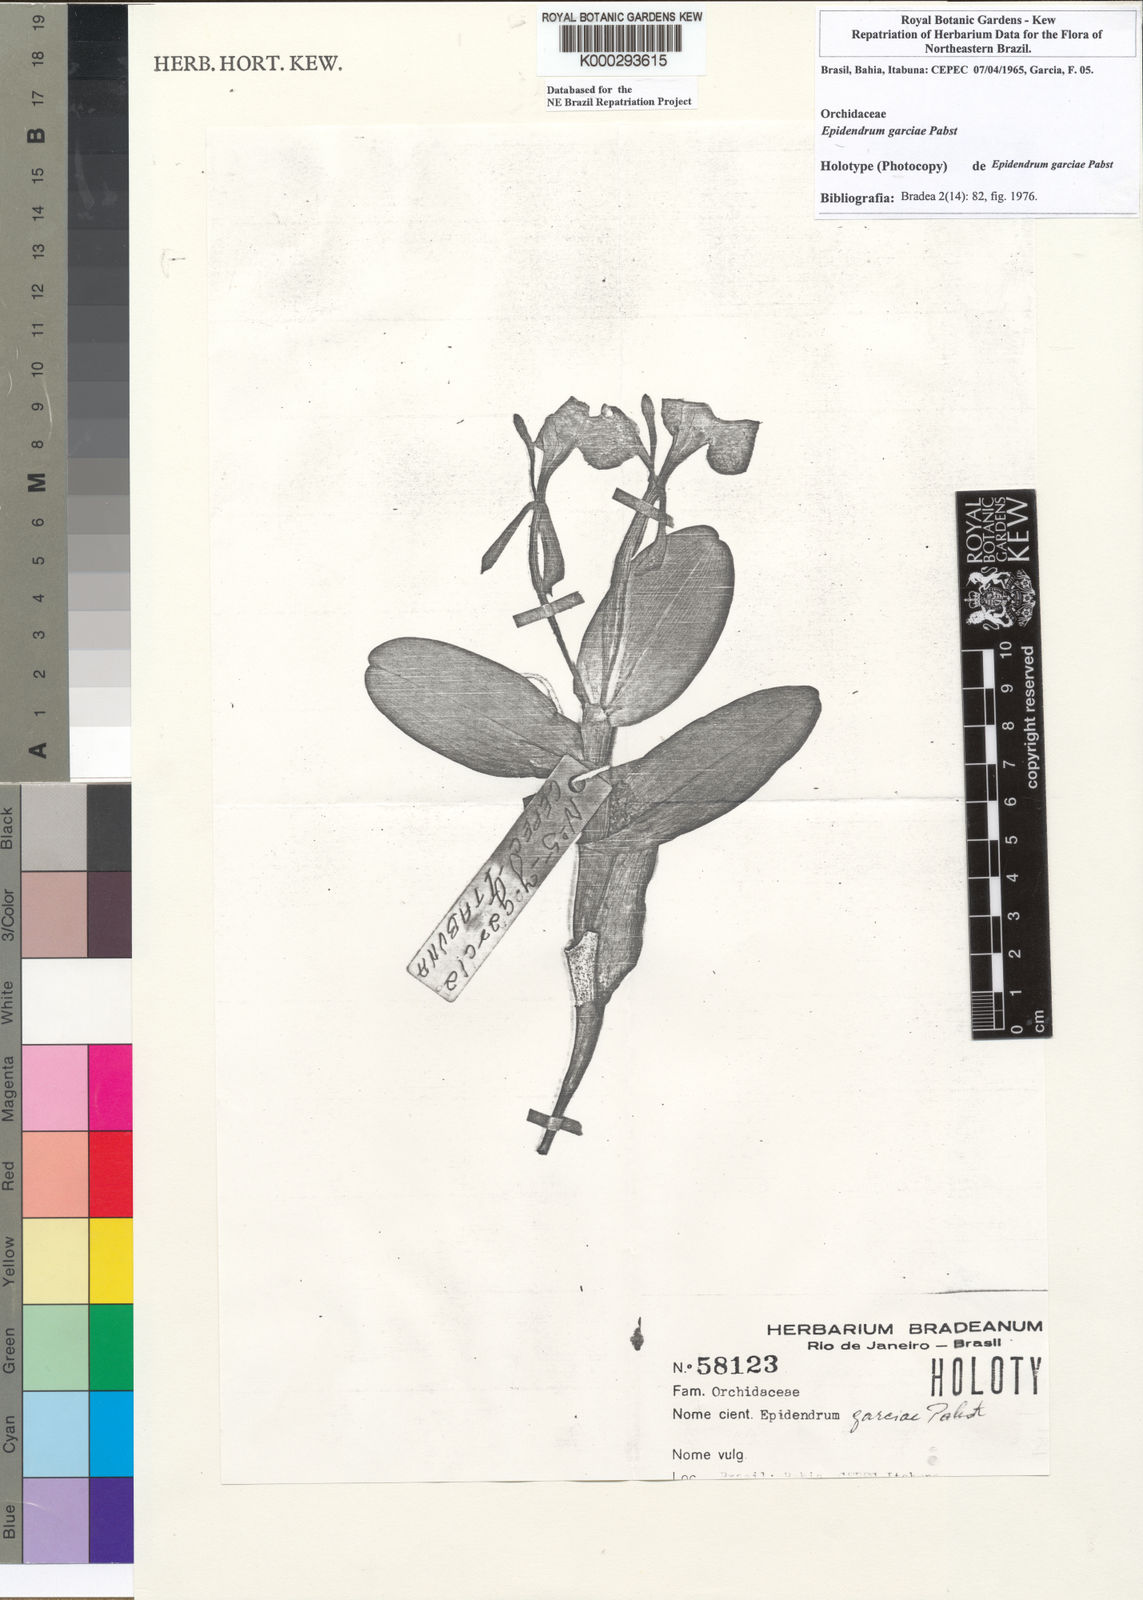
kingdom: Plantae
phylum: Tracheophyta
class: Liliopsida
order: Asparagales
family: Orchidaceae
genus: Epidendrum
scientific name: Epidendrum garciae
